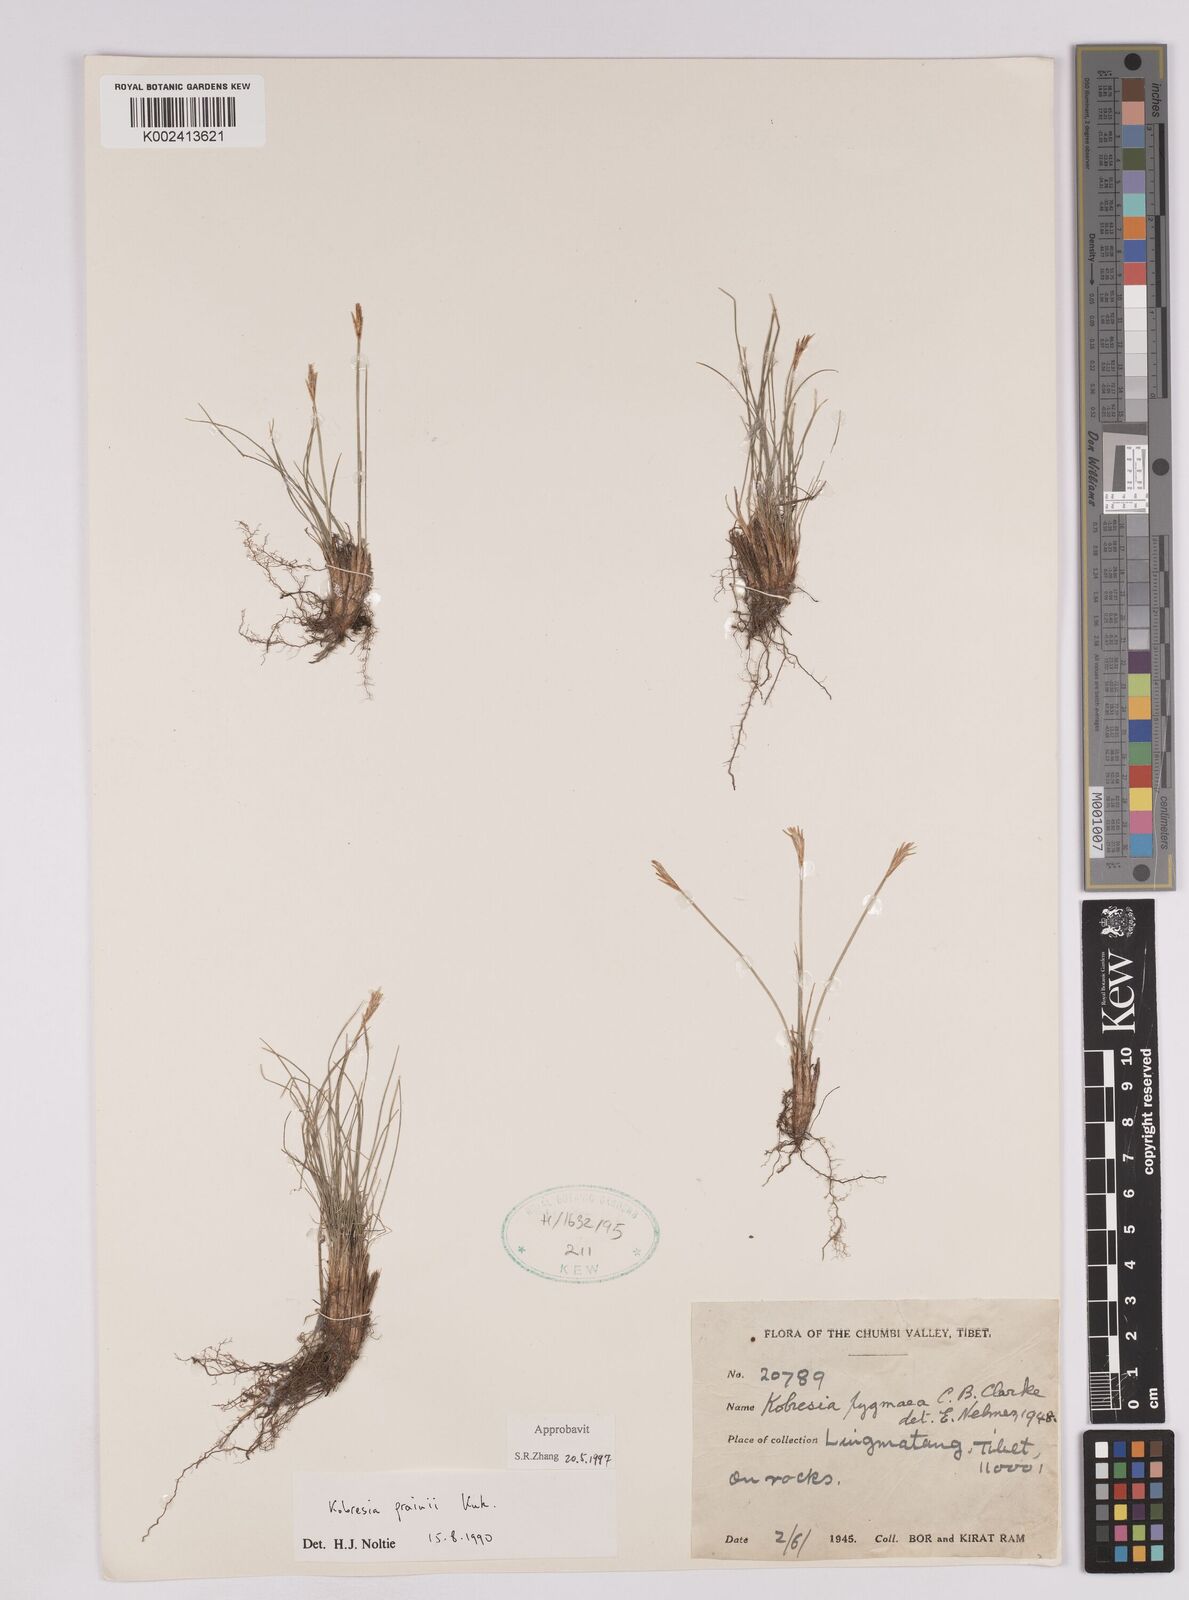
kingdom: Plantae
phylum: Tracheophyta
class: Liliopsida
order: Poales
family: Cyperaceae
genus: Carex
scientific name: Carex bhutanensis
